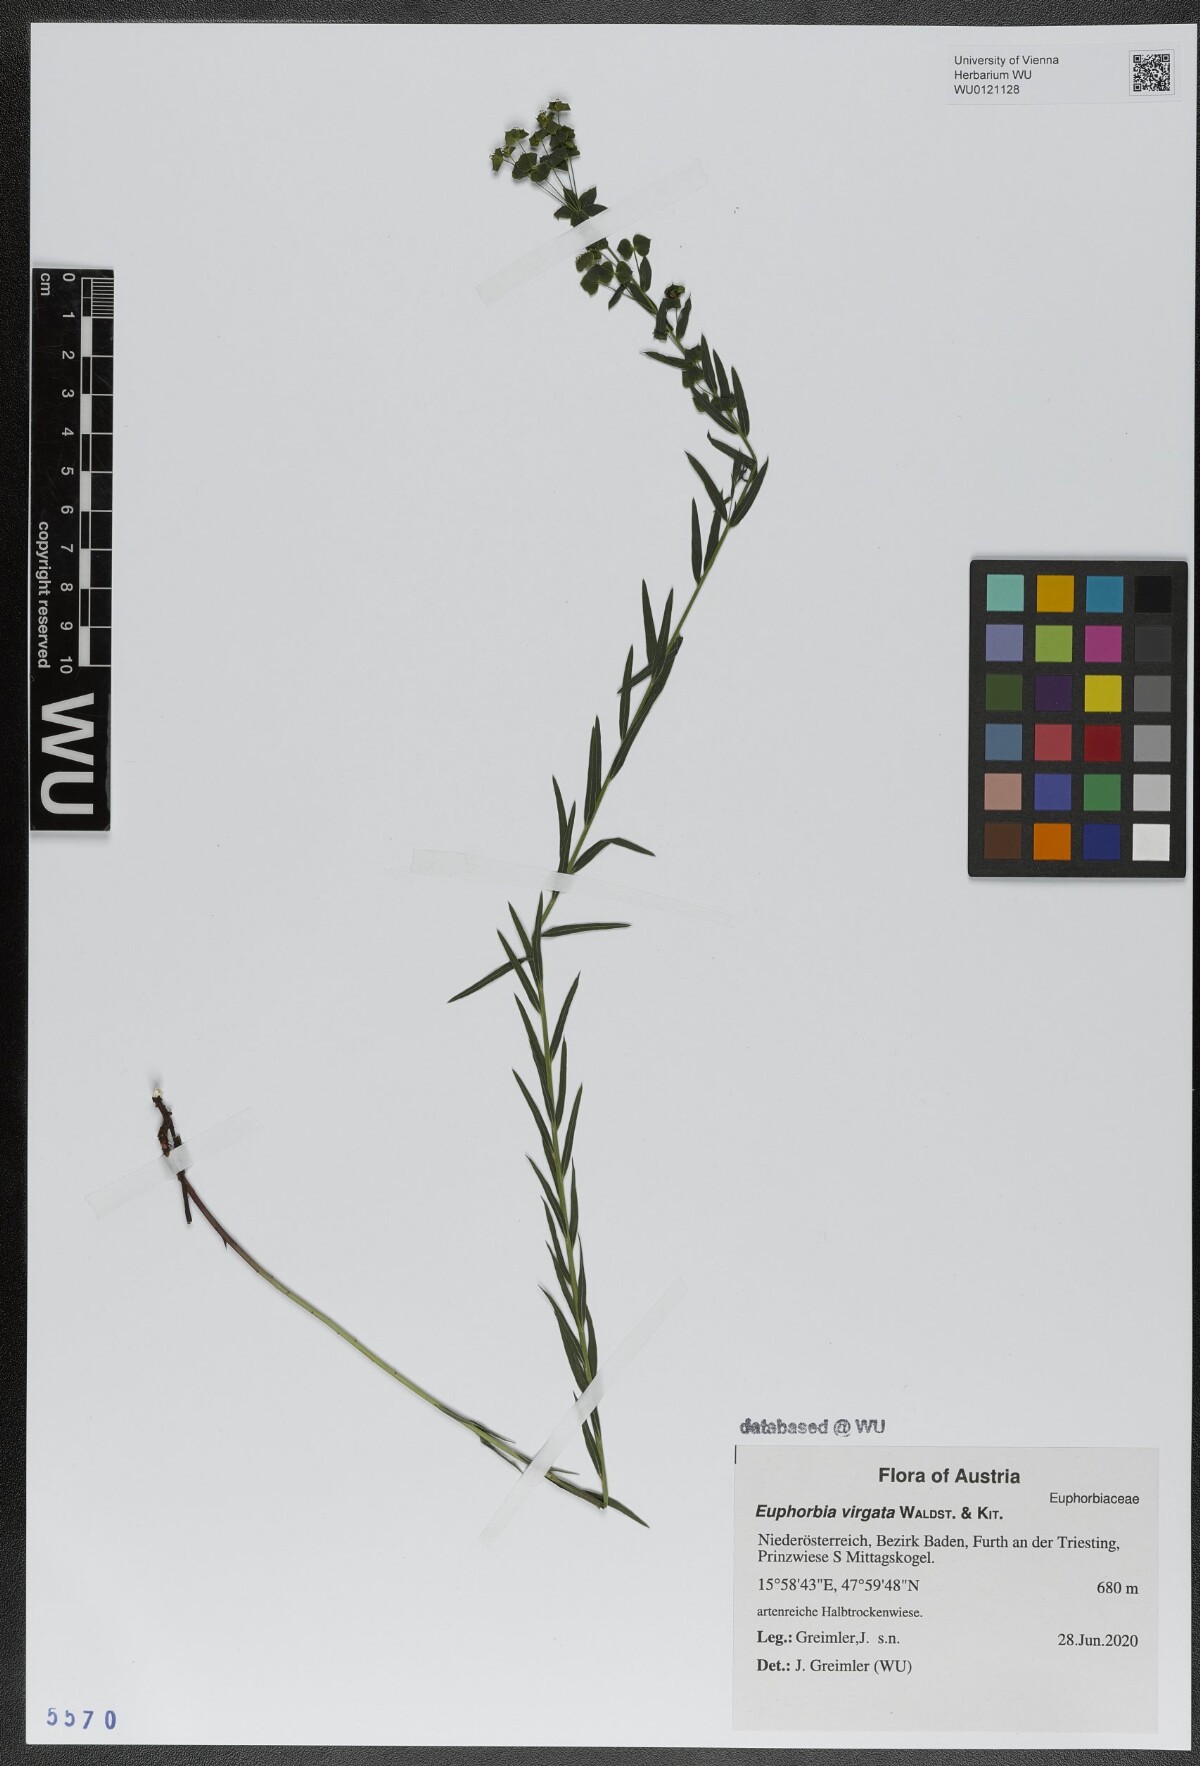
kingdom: Plantae
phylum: Tracheophyta
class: Magnoliopsida
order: Malpighiales
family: Euphorbiaceae
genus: Euphorbia
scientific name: Euphorbia virgata
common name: Leafy spurge
